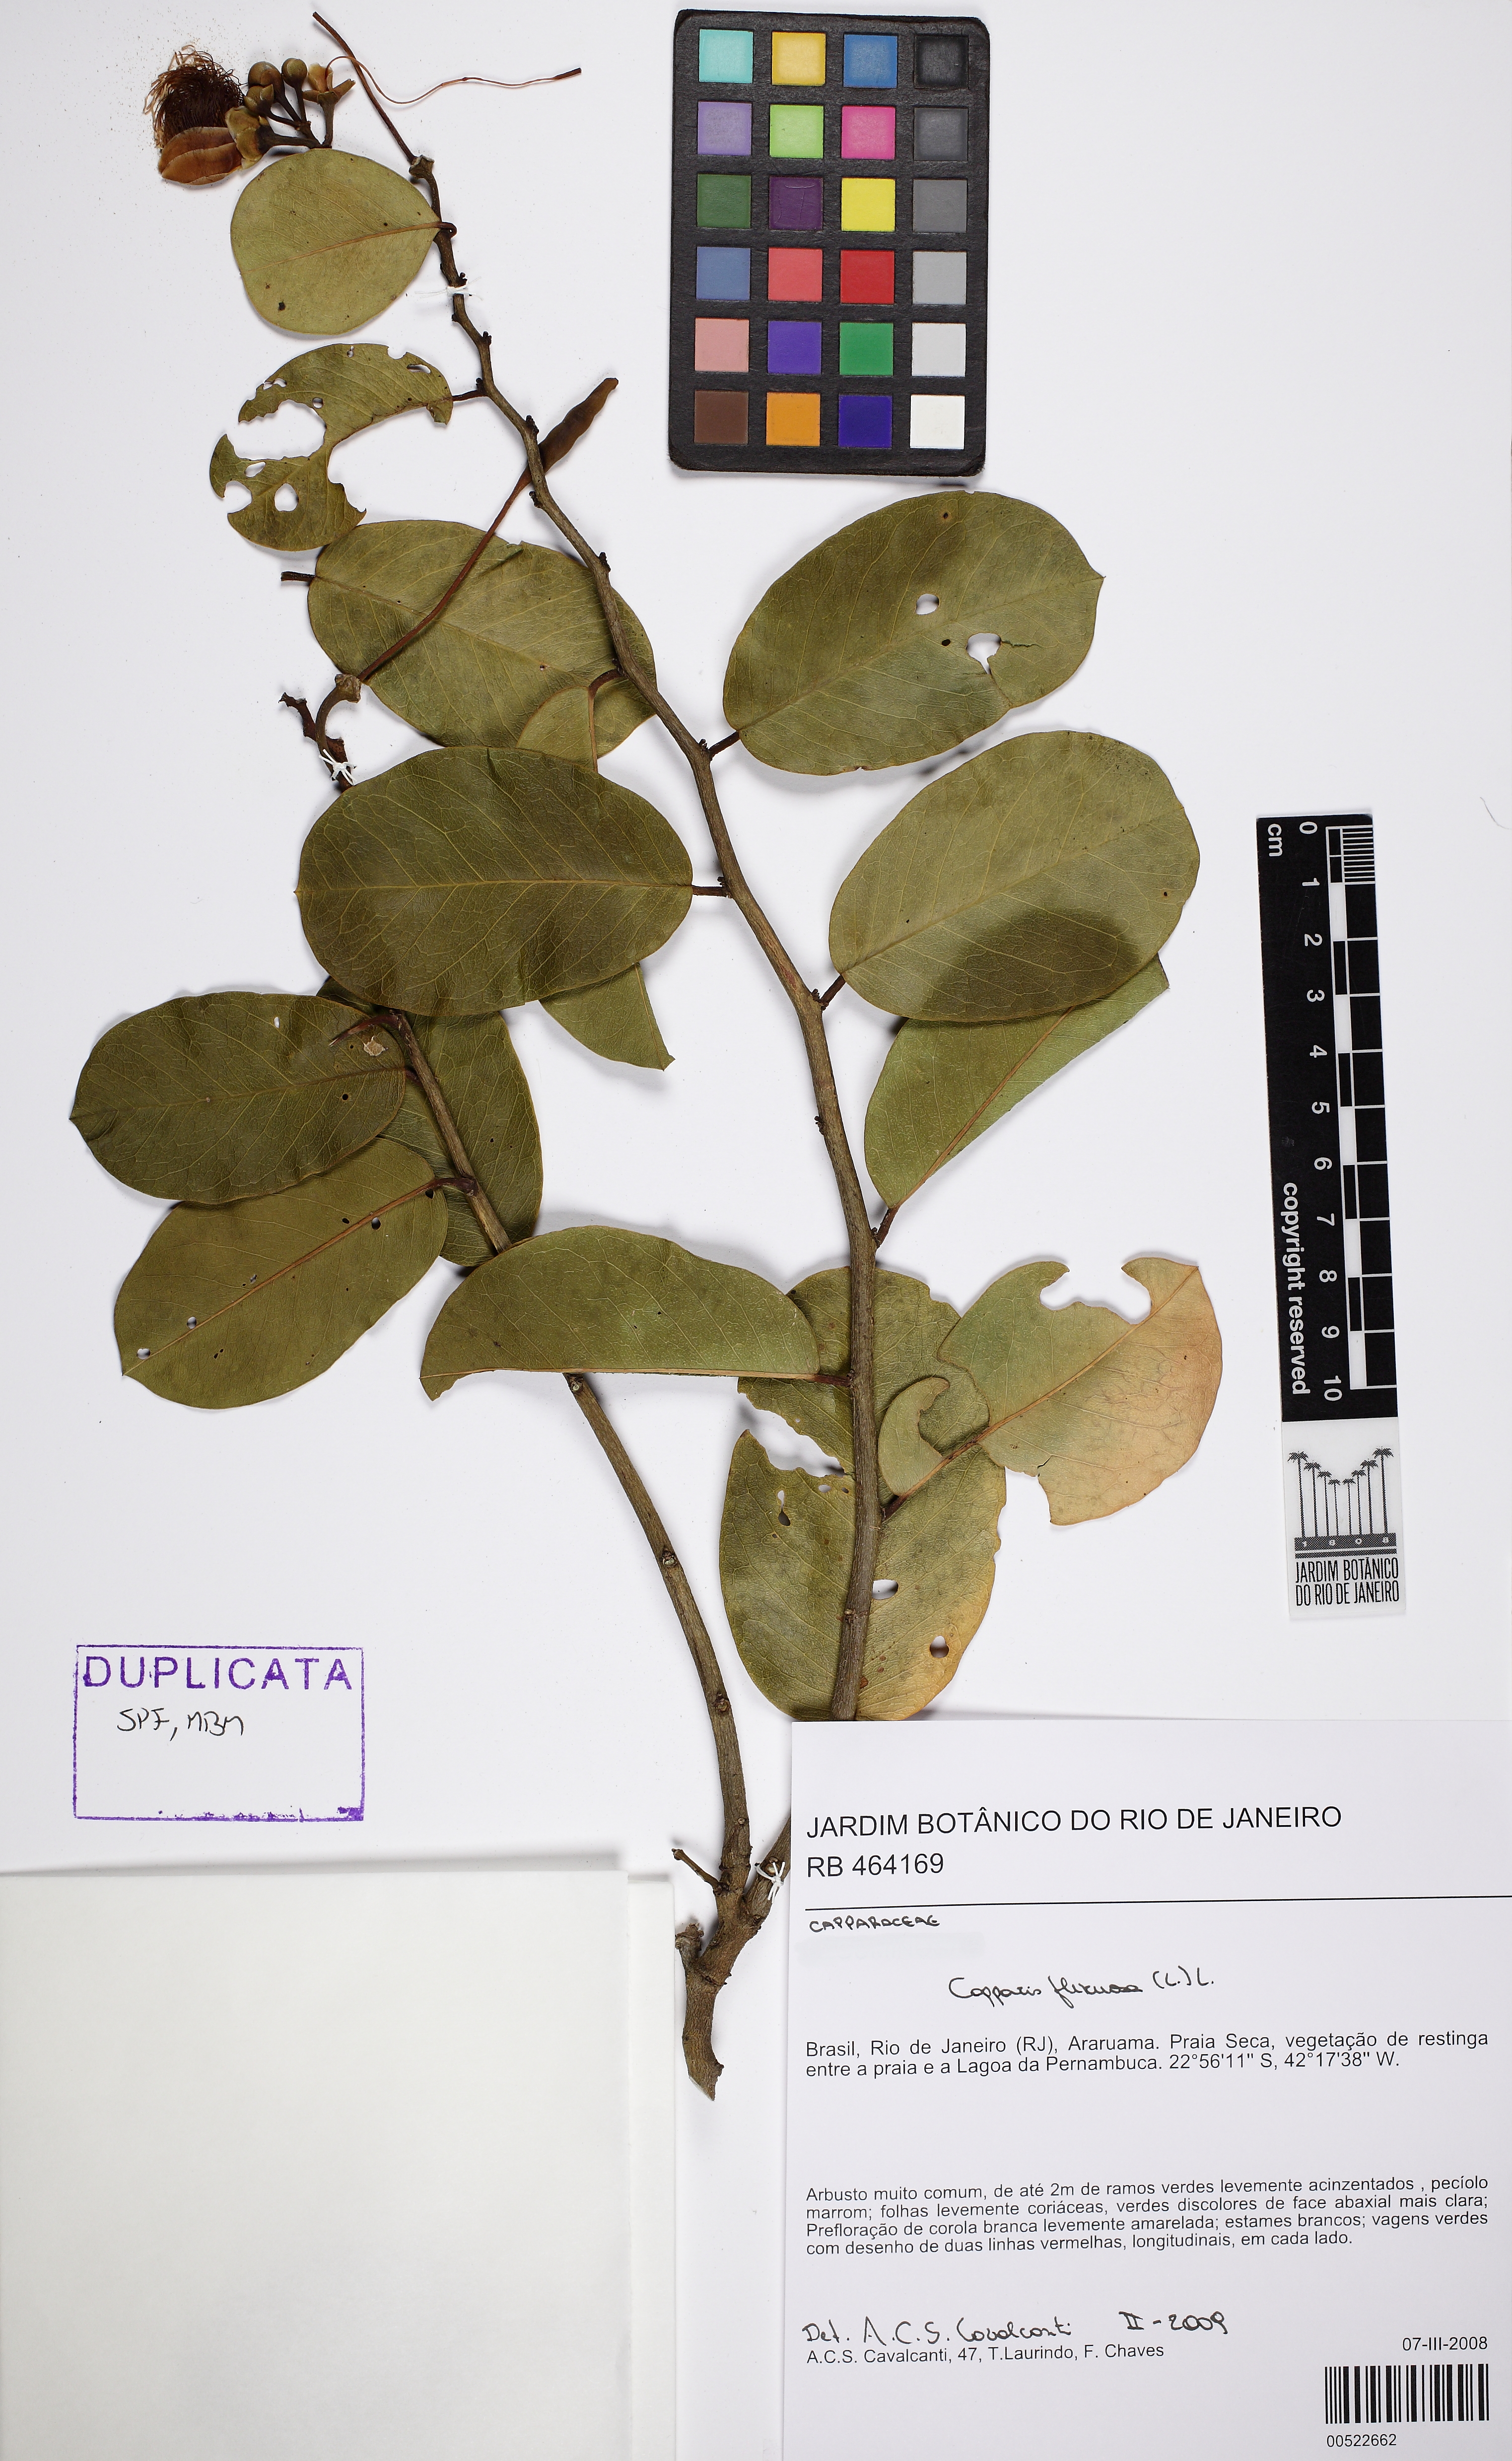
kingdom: Plantae
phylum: Tracheophyta
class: Magnoliopsida
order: Brassicales
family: Capparaceae
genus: Cynophalla
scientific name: Cynophalla flexuosa
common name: Capertree
